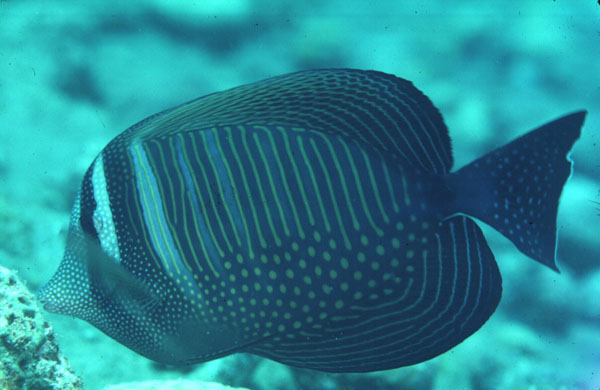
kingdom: Animalia
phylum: Chordata
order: Perciformes
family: Acanthuridae
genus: Zebrasoma
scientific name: Zebrasoma desjardinii
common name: Desjardin's sailfin tang
